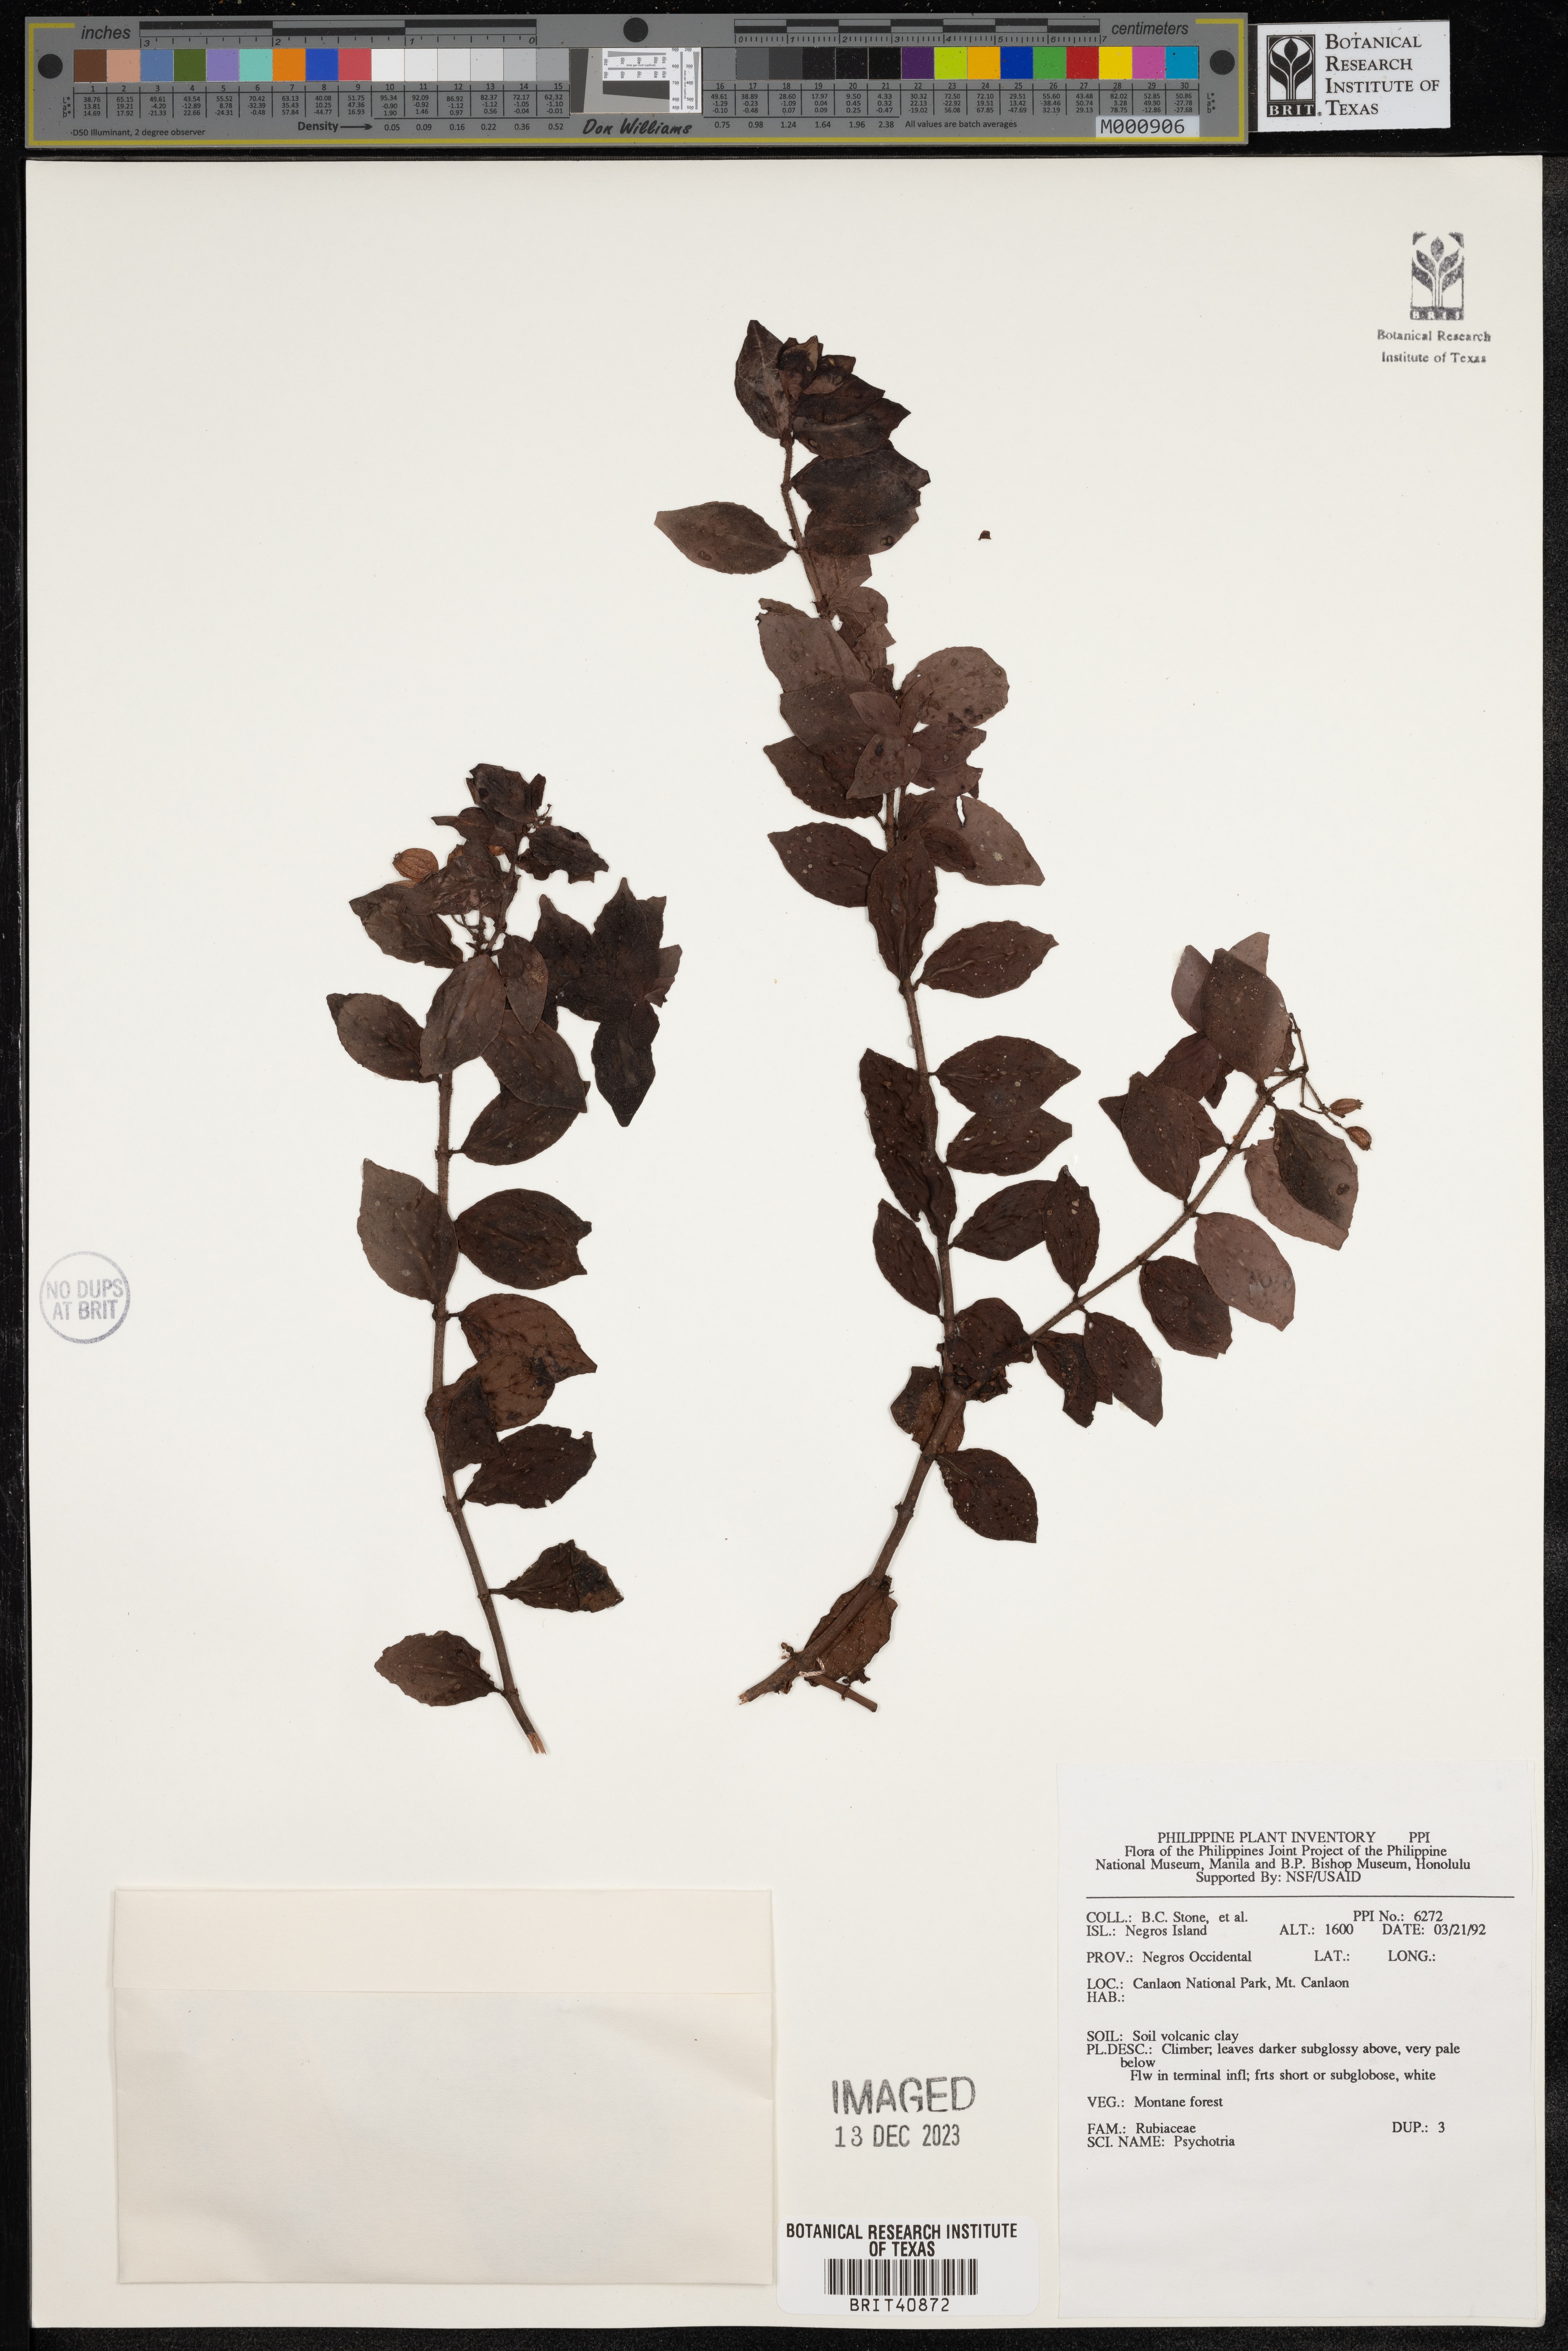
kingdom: Plantae
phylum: Tracheophyta
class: Magnoliopsida
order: Gentianales
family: Rubiaceae
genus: Psychotria
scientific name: Psychotria
